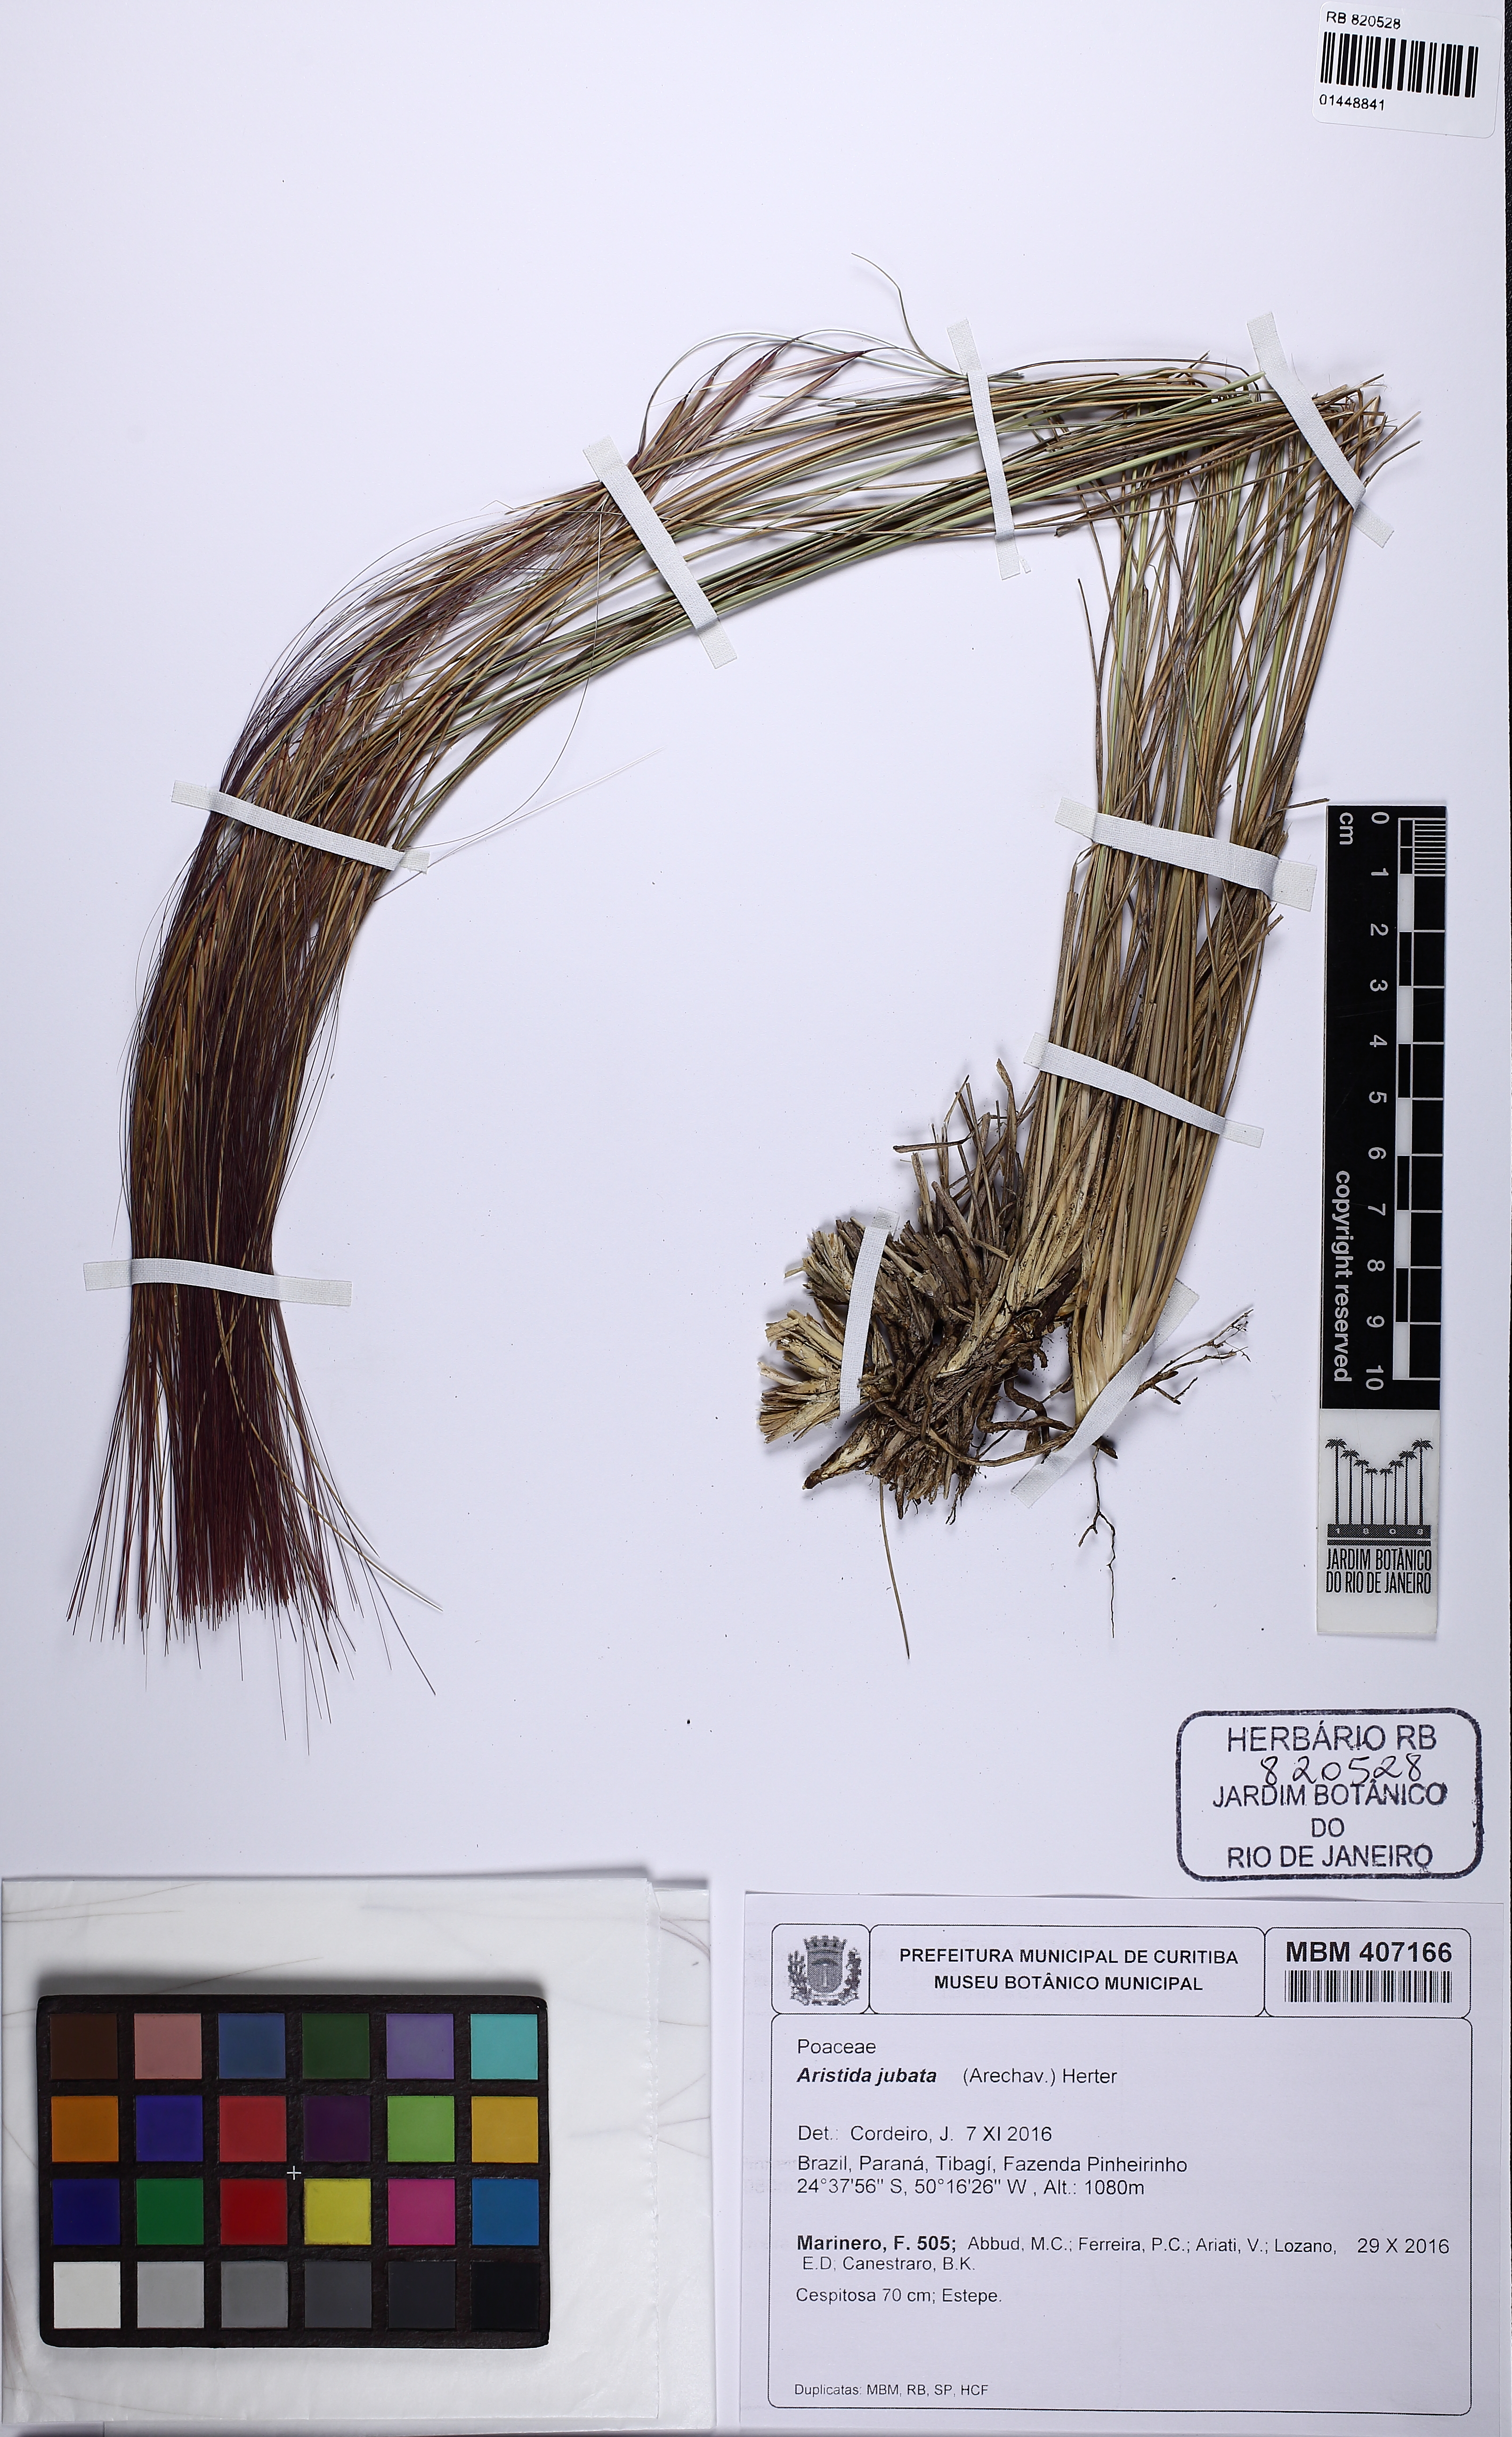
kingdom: Plantae
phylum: Tracheophyta
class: Liliopsida
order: Poales
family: Poaceae
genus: Aristida
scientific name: Aristida jubata
